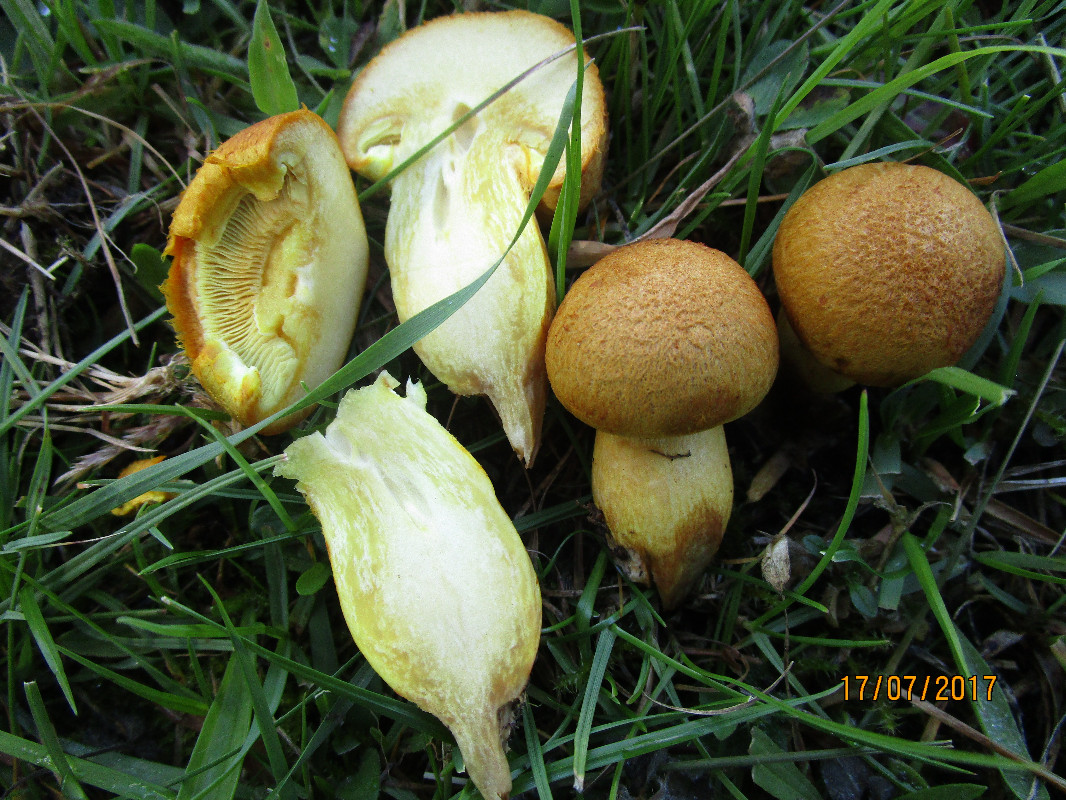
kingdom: Fungi
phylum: Basidiomycota
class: Agaricomycetes
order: Agaricales
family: Hymenogastraceae
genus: Gymnopilus
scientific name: Gymnopilus spectabilis
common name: fibret flammehat
